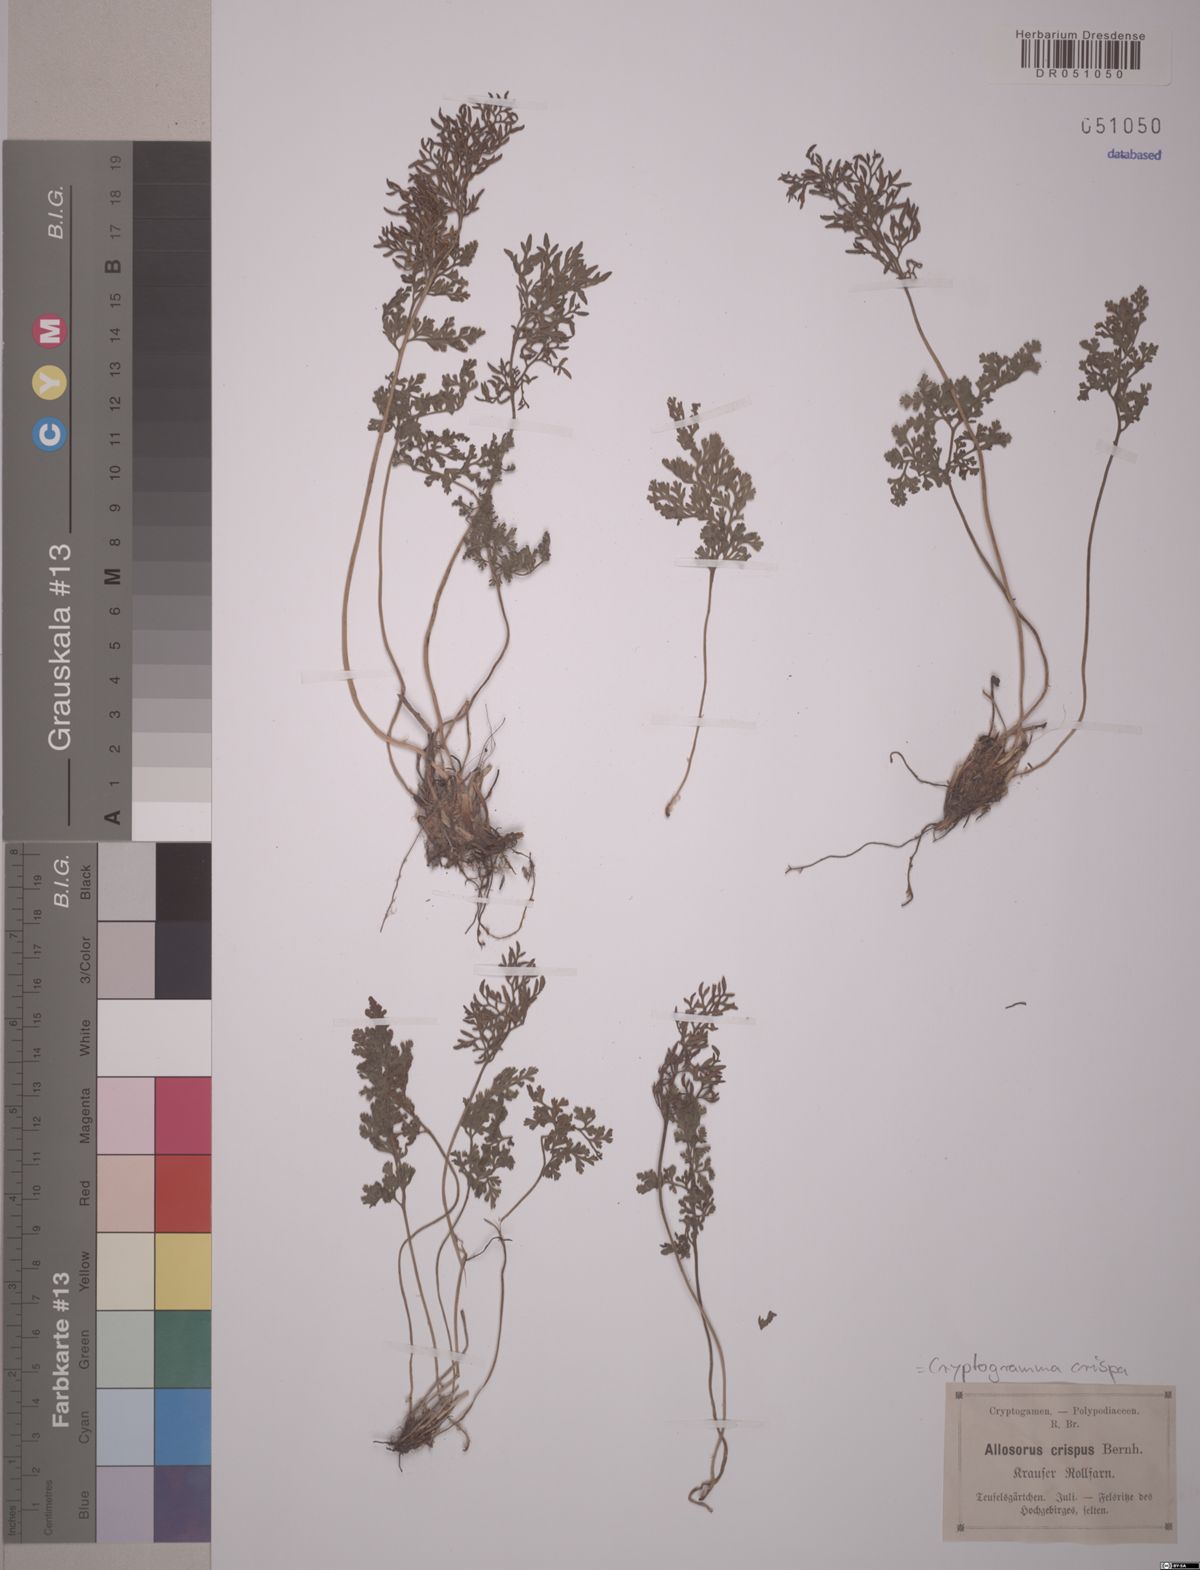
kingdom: Plantae
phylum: Tracheophyta
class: Polypodiopsida
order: Polypodiales
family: Pteridaceae
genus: Cryptogramma
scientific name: Cryptogramma crispa
